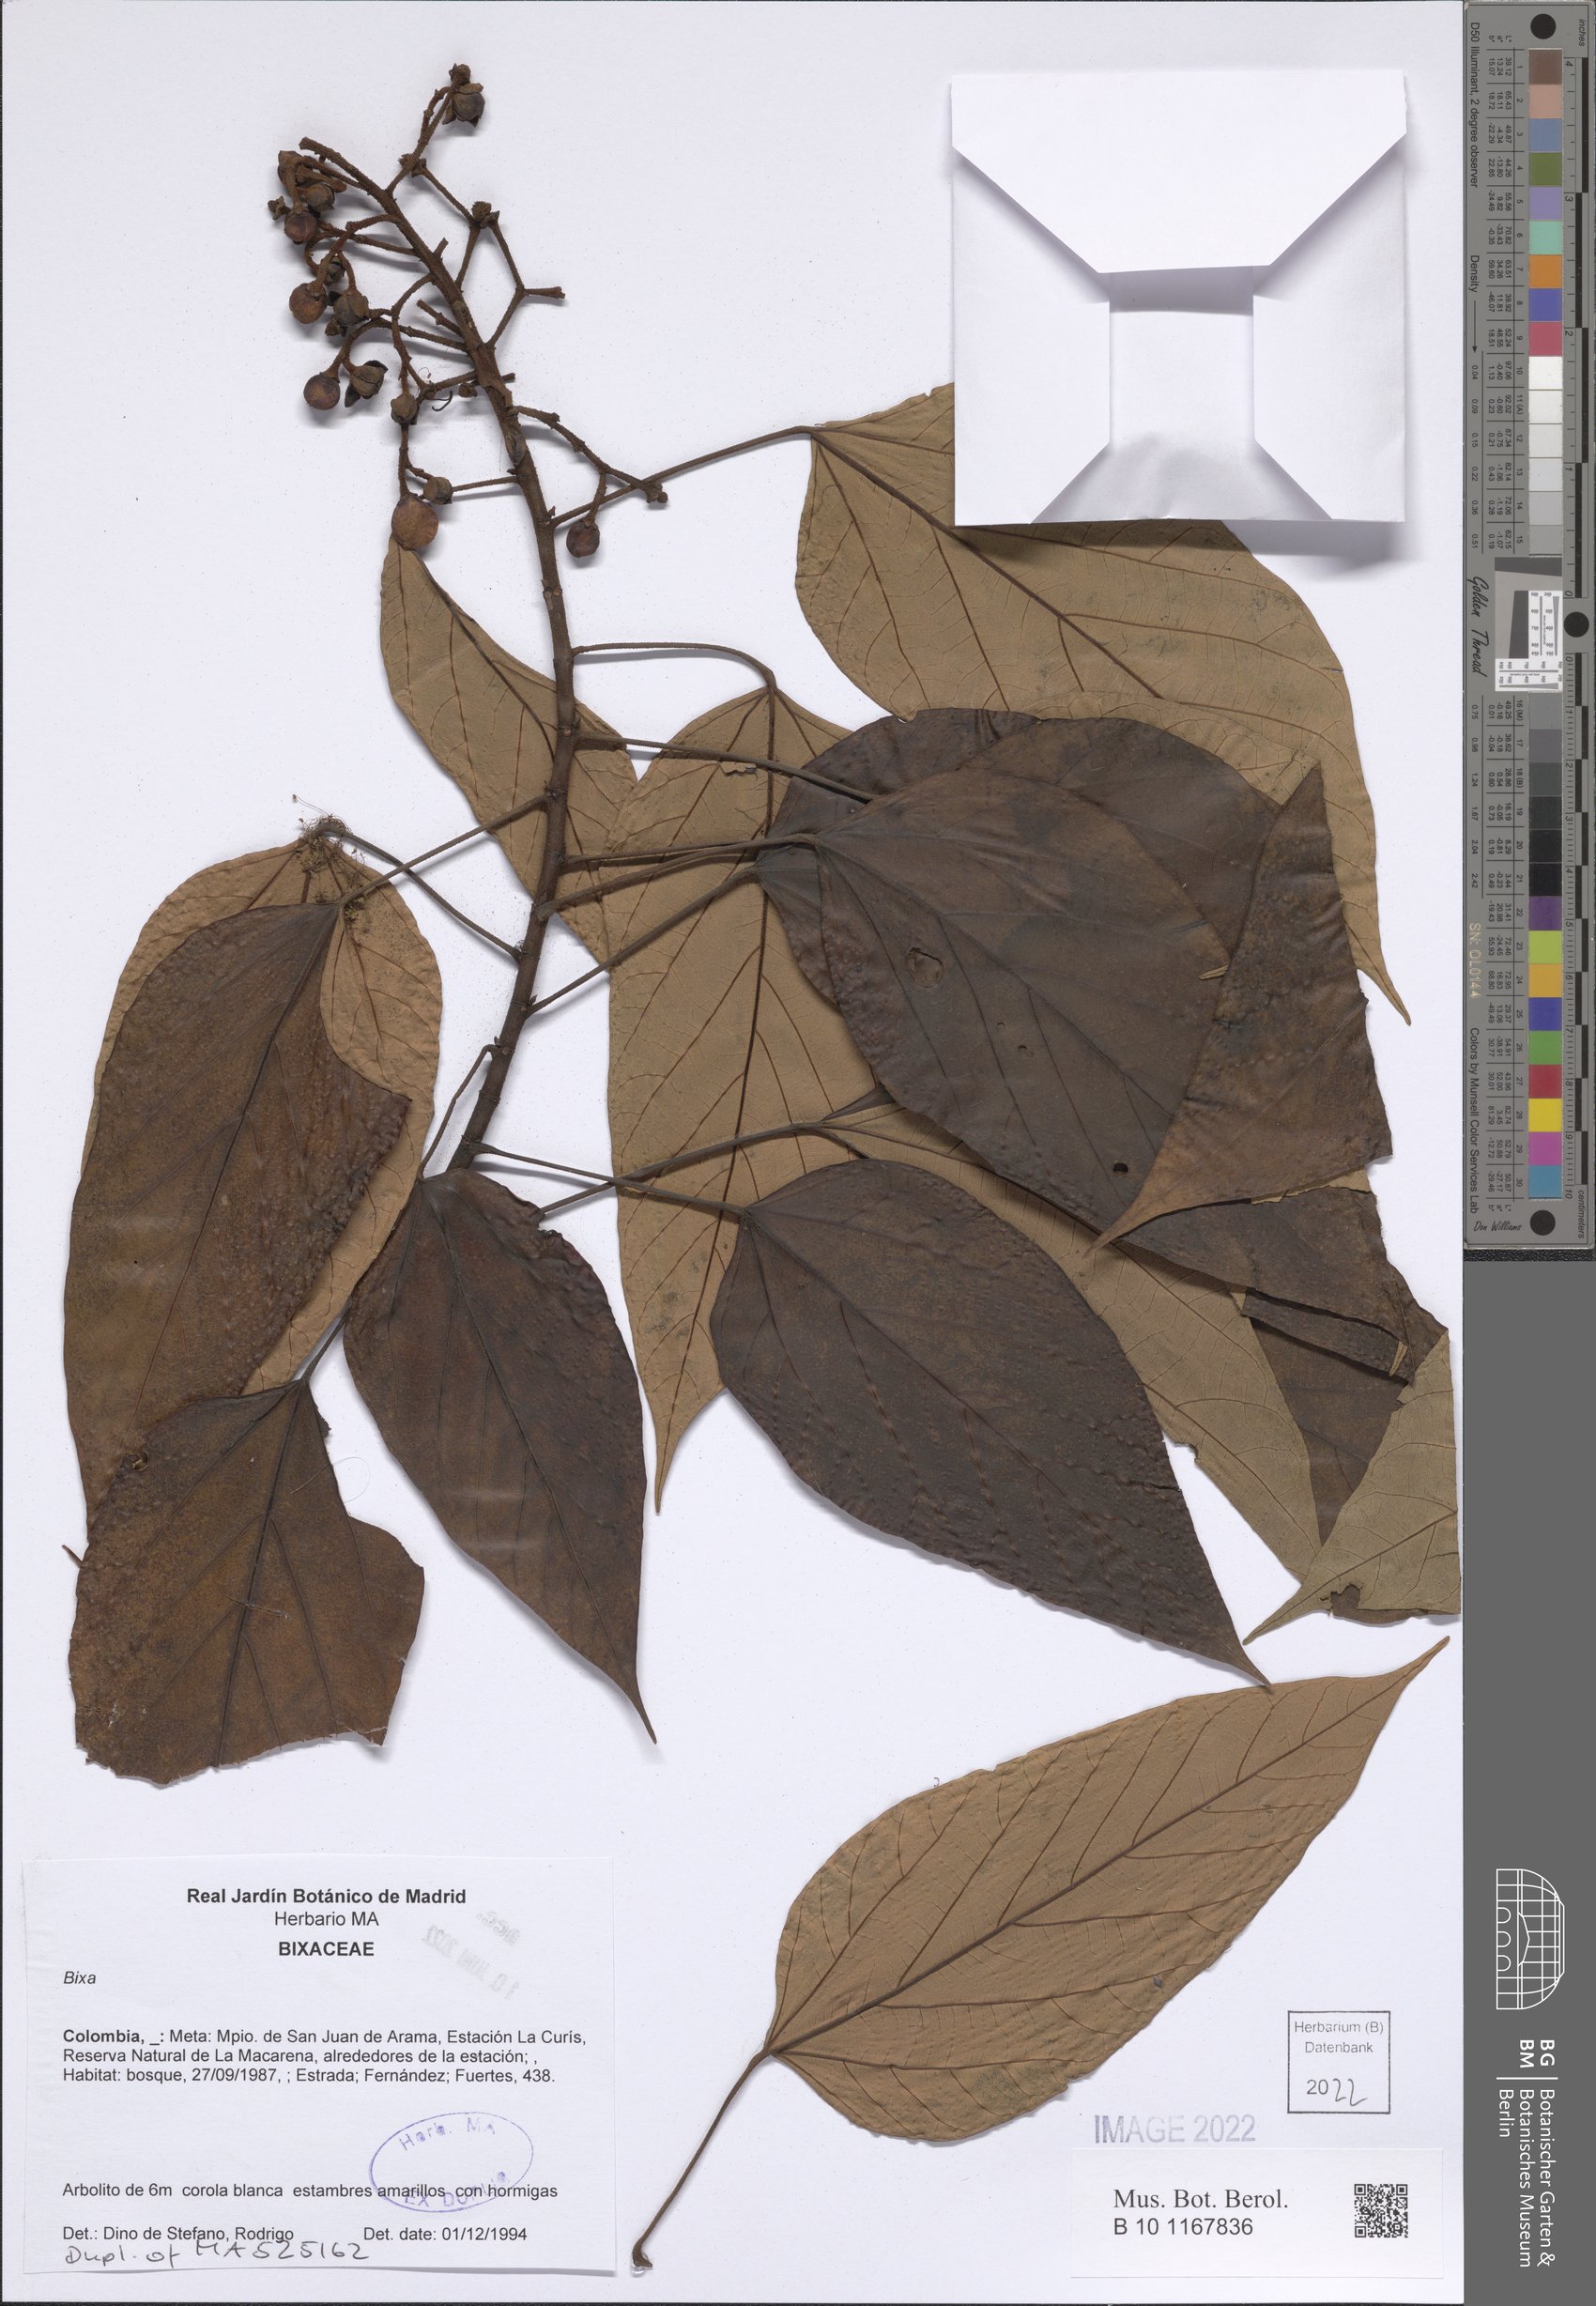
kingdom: Plantae
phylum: Tracheophyta
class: Magnoliopsida
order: Malvales
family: Bixaceae
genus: Bixa
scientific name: Bixa
